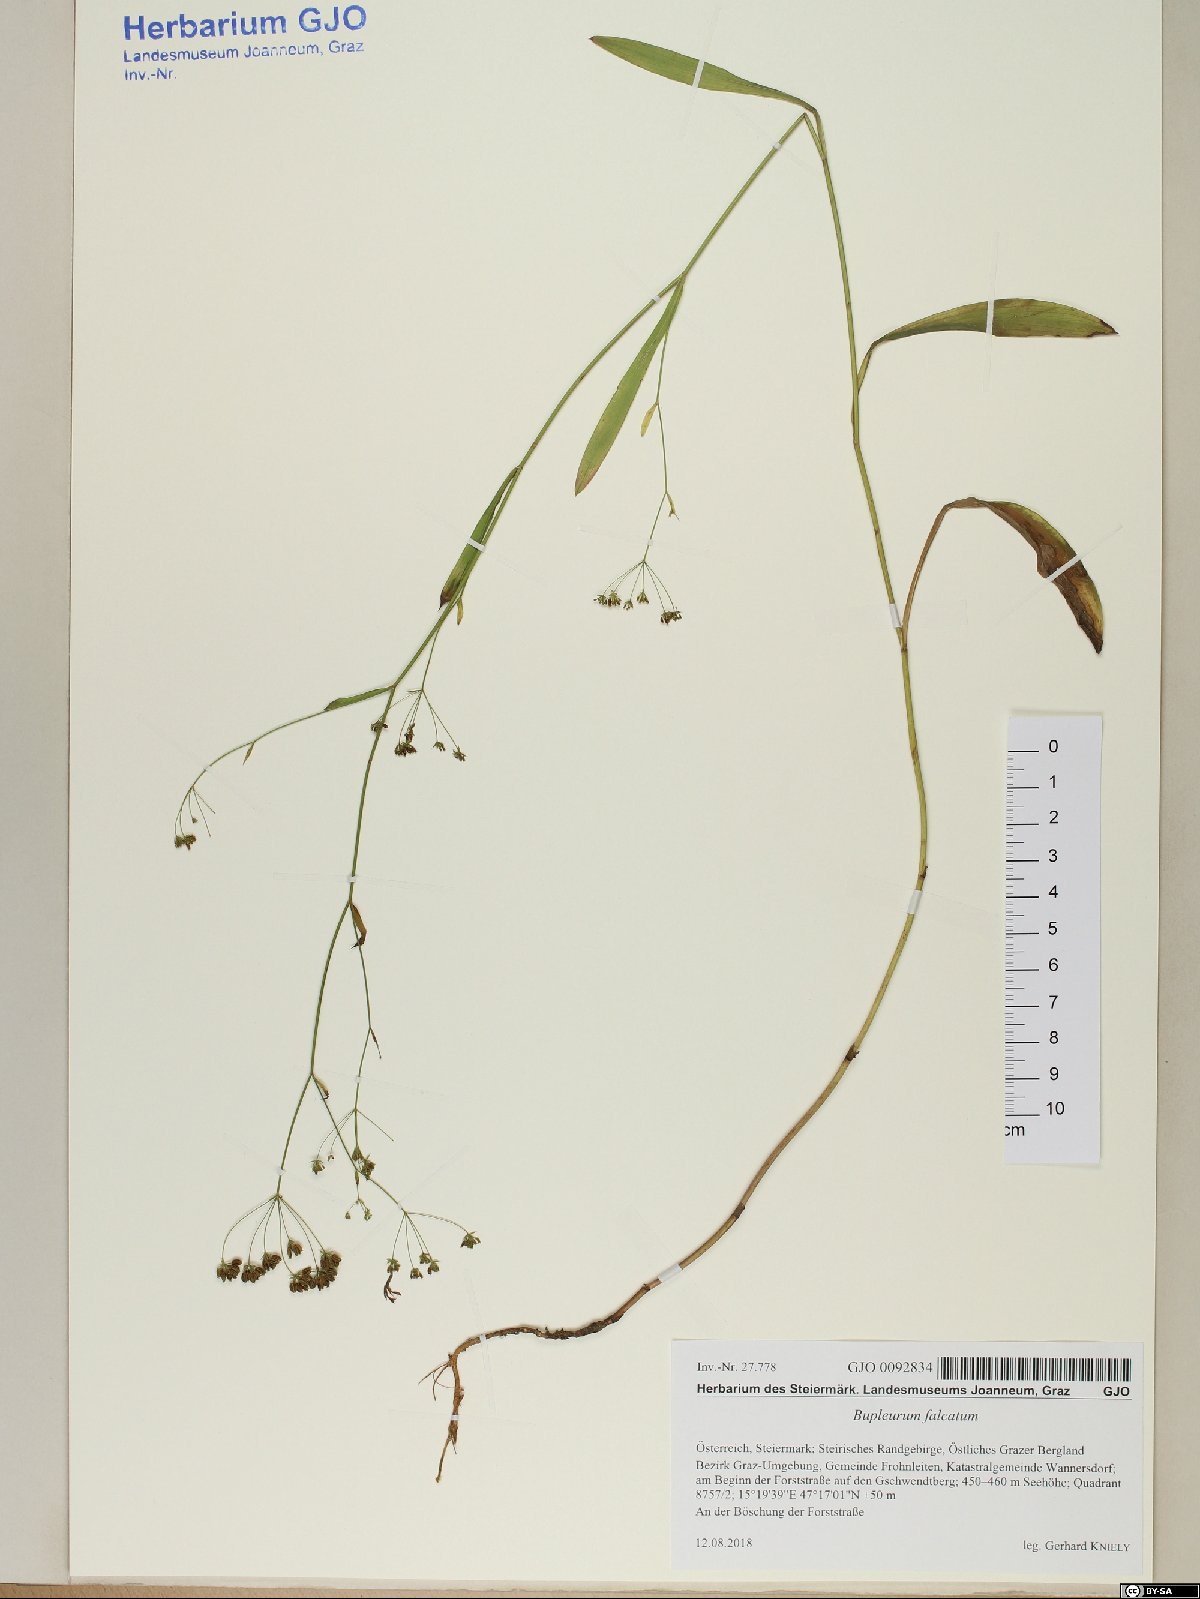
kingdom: Plantae
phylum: Tracheophyta
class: Magnoliopsida
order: Apiales
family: Apiaceae
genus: Bupleurum
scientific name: Bupleurum falcatum
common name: Sickle-leaved hare's-ear
